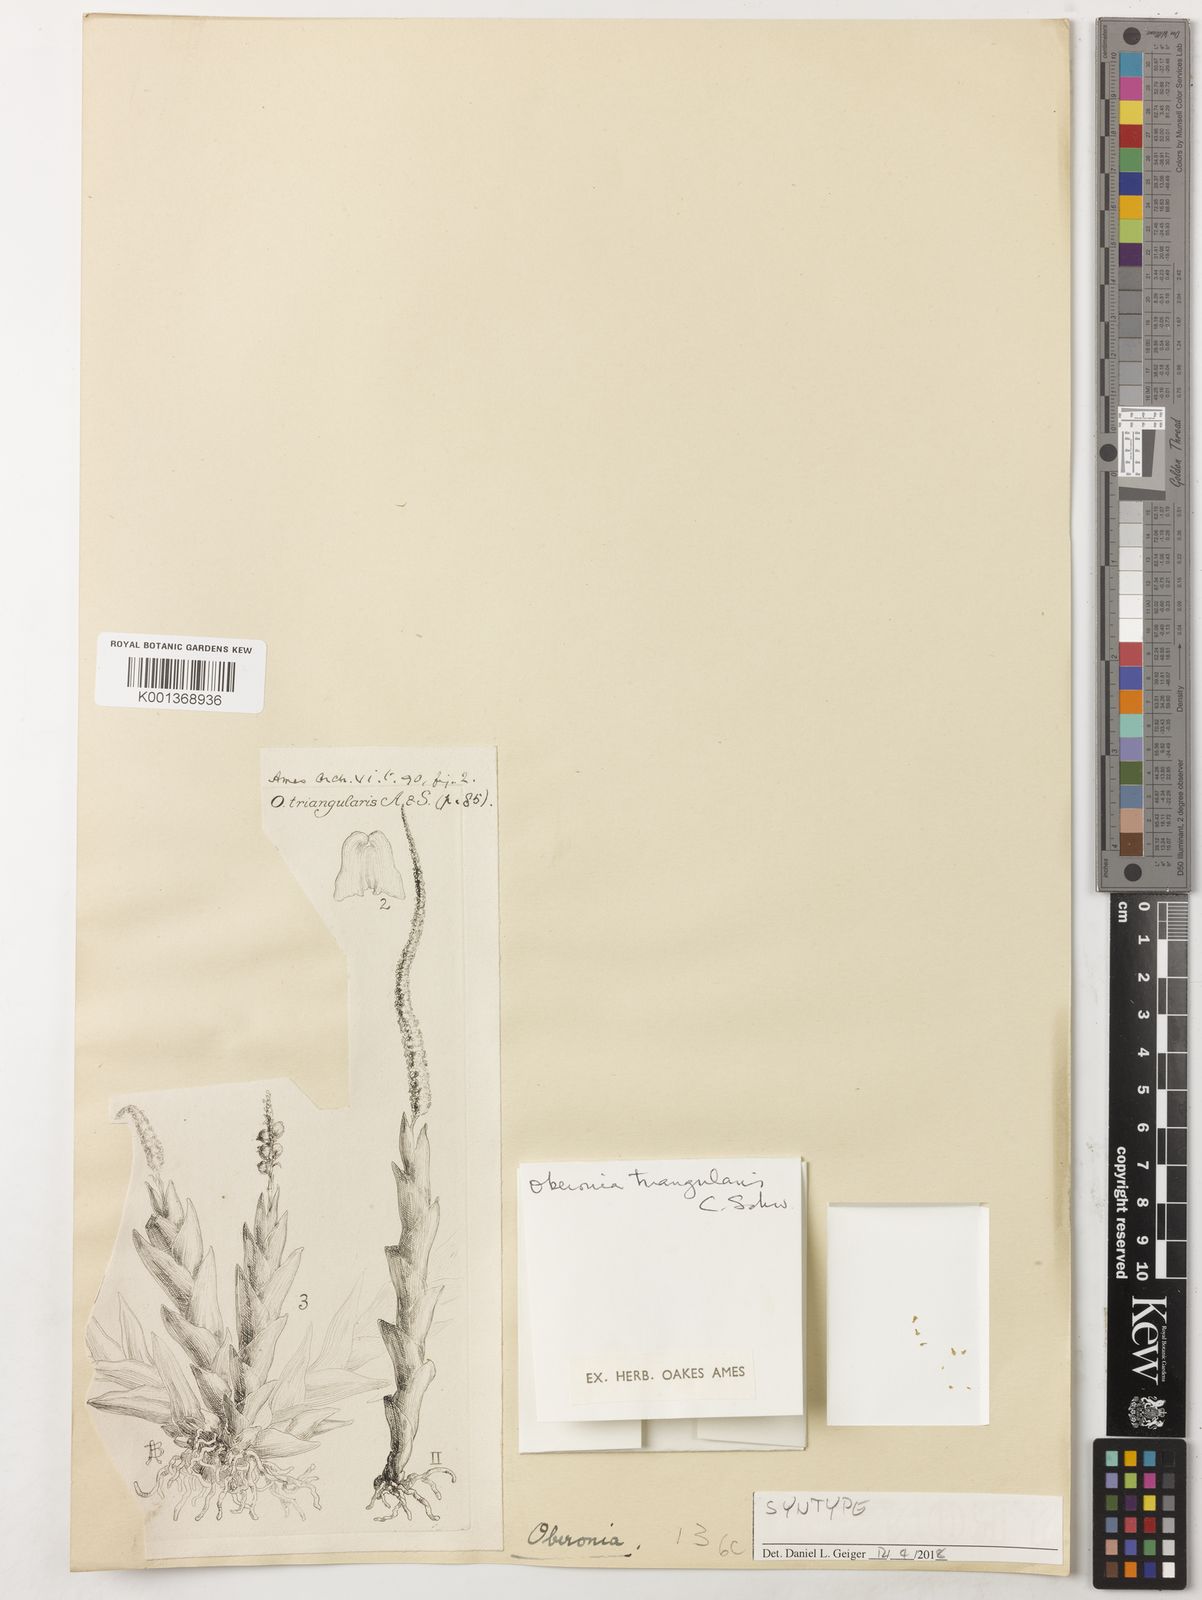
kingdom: Plantae
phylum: Tracheophyta
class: Liliopsida
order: Asparagales
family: Orchidaceae
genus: Oberonia
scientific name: Oberonia triangularis
